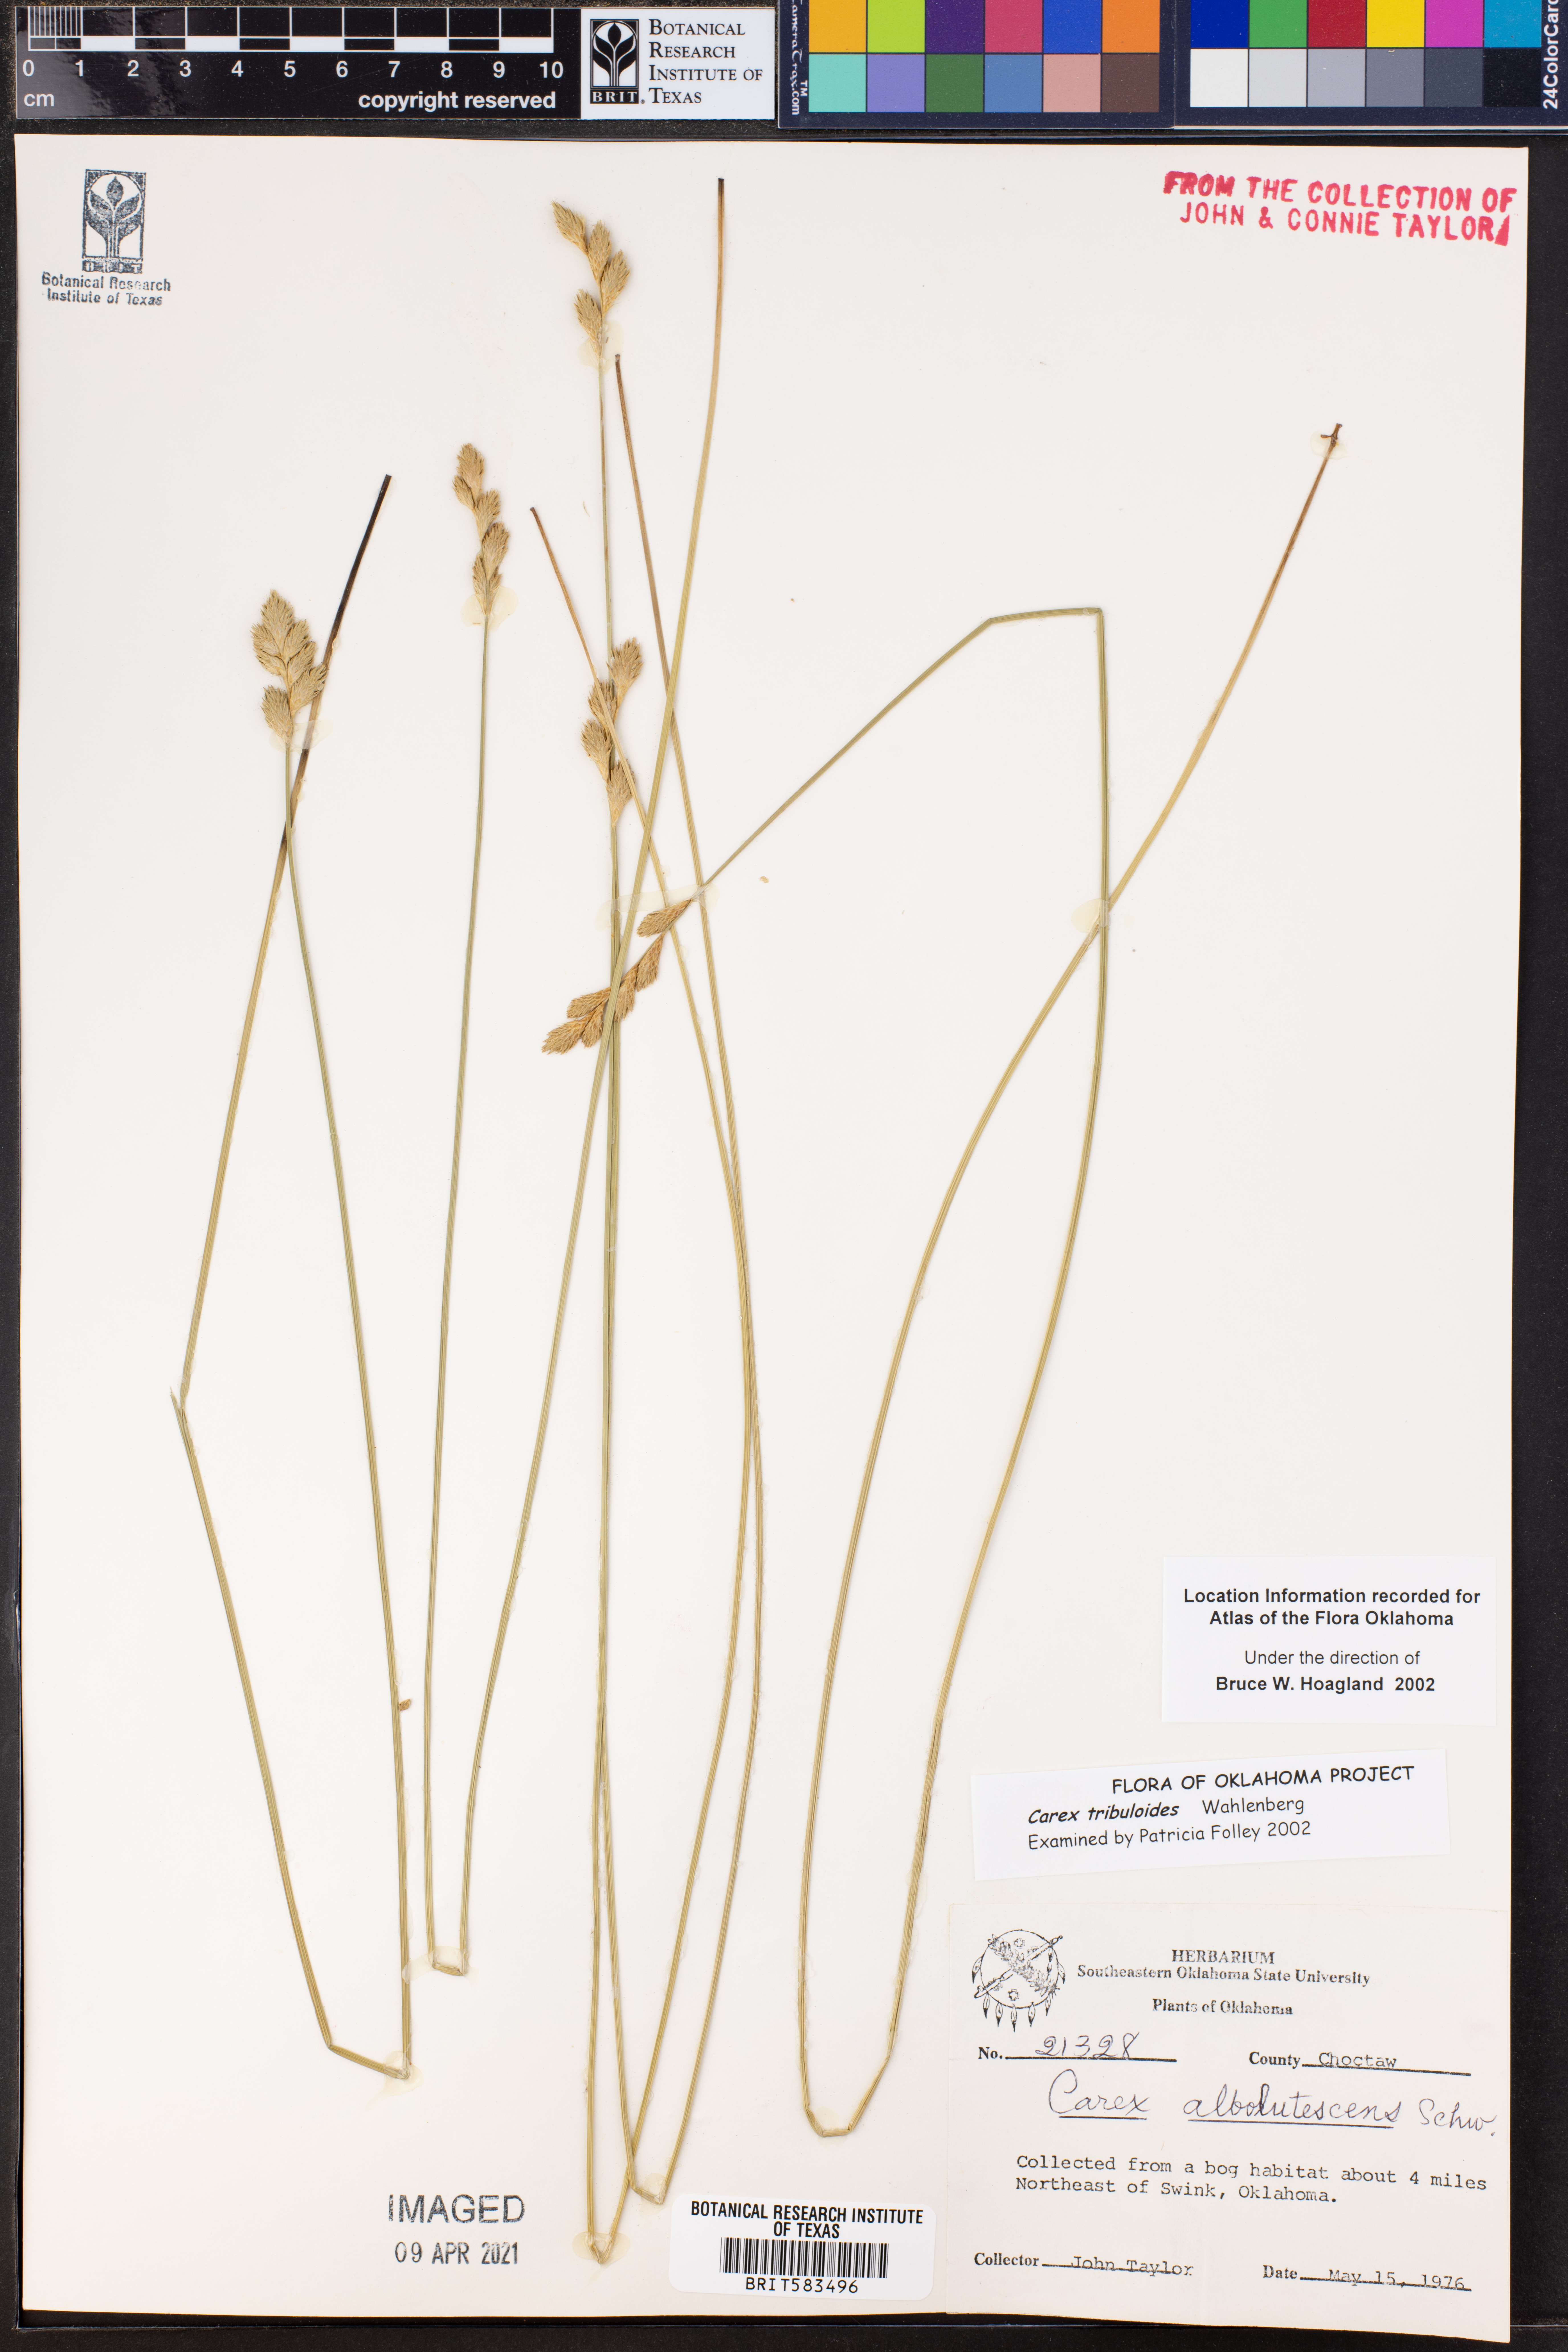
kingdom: Plantae
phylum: Tracheophyta
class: Liliopsida
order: Poales
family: Cyperaceae
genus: Carex
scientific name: Carex tribuloides
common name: Blunt broom sedge
